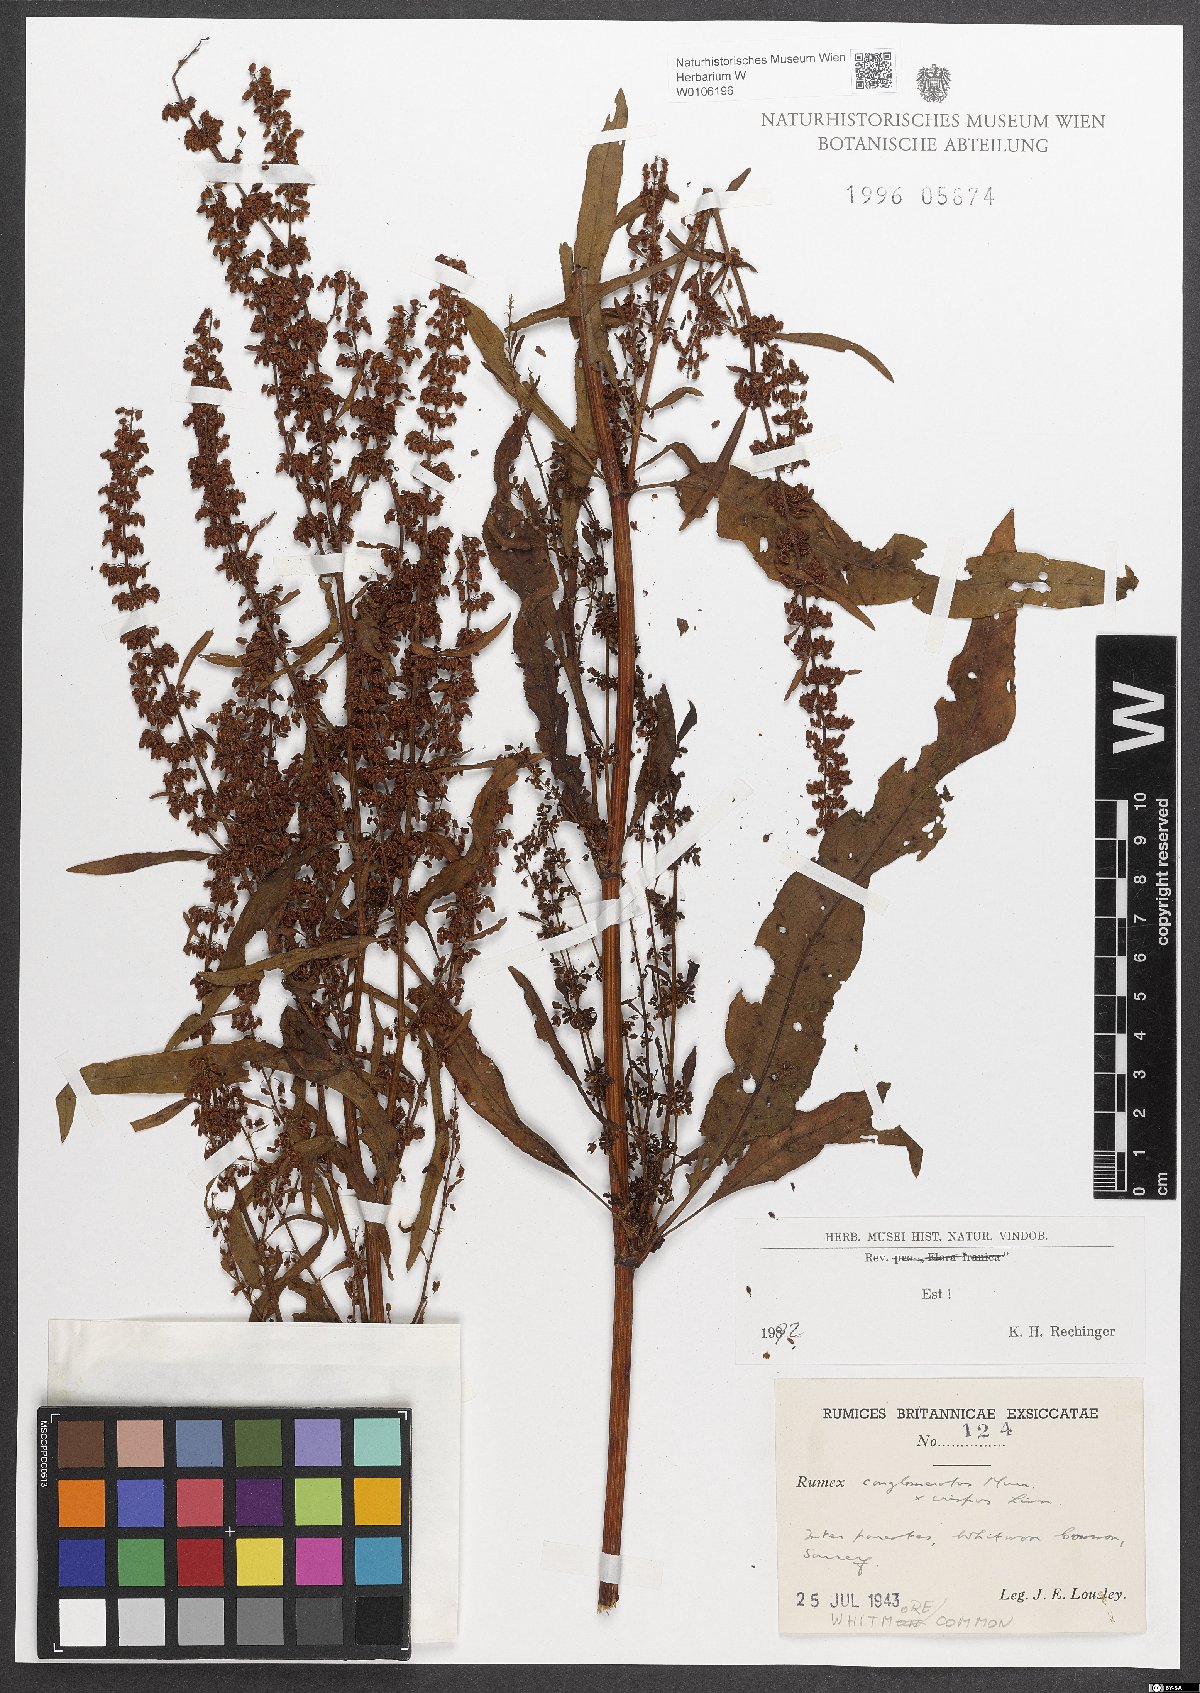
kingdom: Plantae
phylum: Tracheophyta
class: Magnoliopsida
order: Caryophyllales
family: Polygonaceae
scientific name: Polygonaceae
